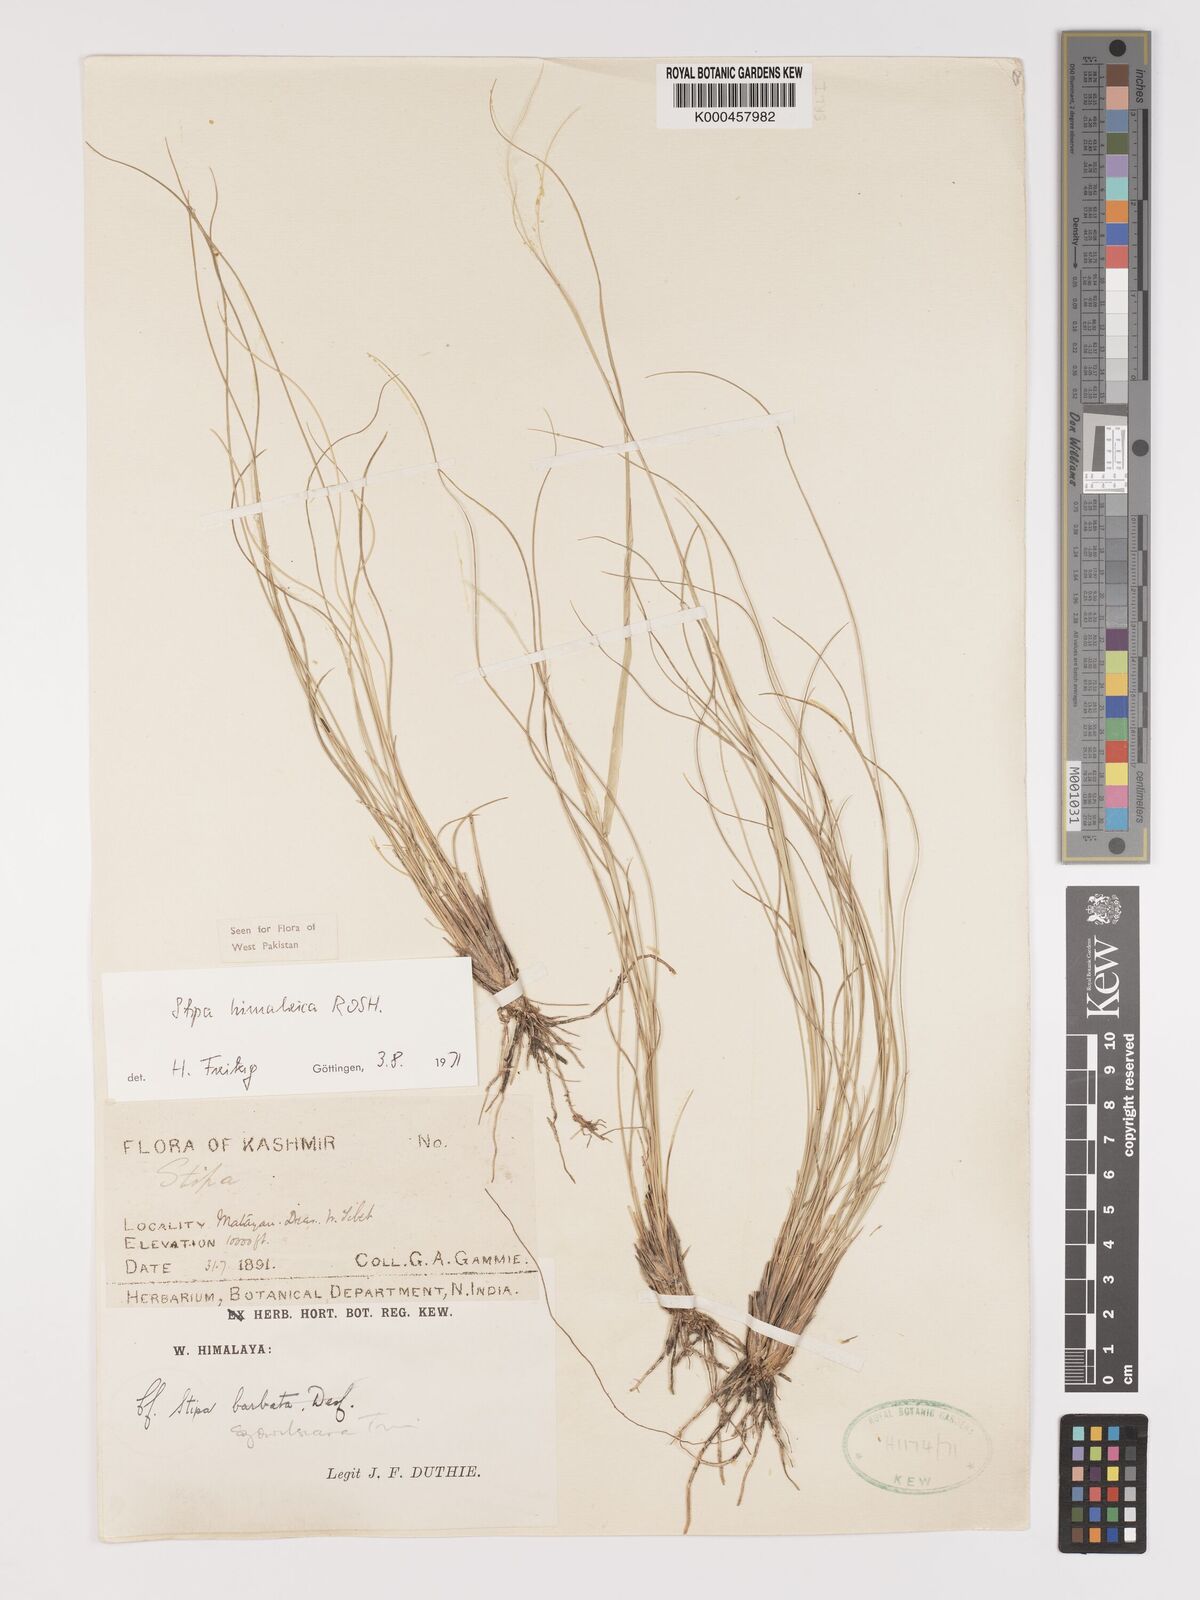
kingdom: Plantae
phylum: Tracheophyta
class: Liliopsida
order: Poales
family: Poaceae
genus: Stipa
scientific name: Stipa himalaica
